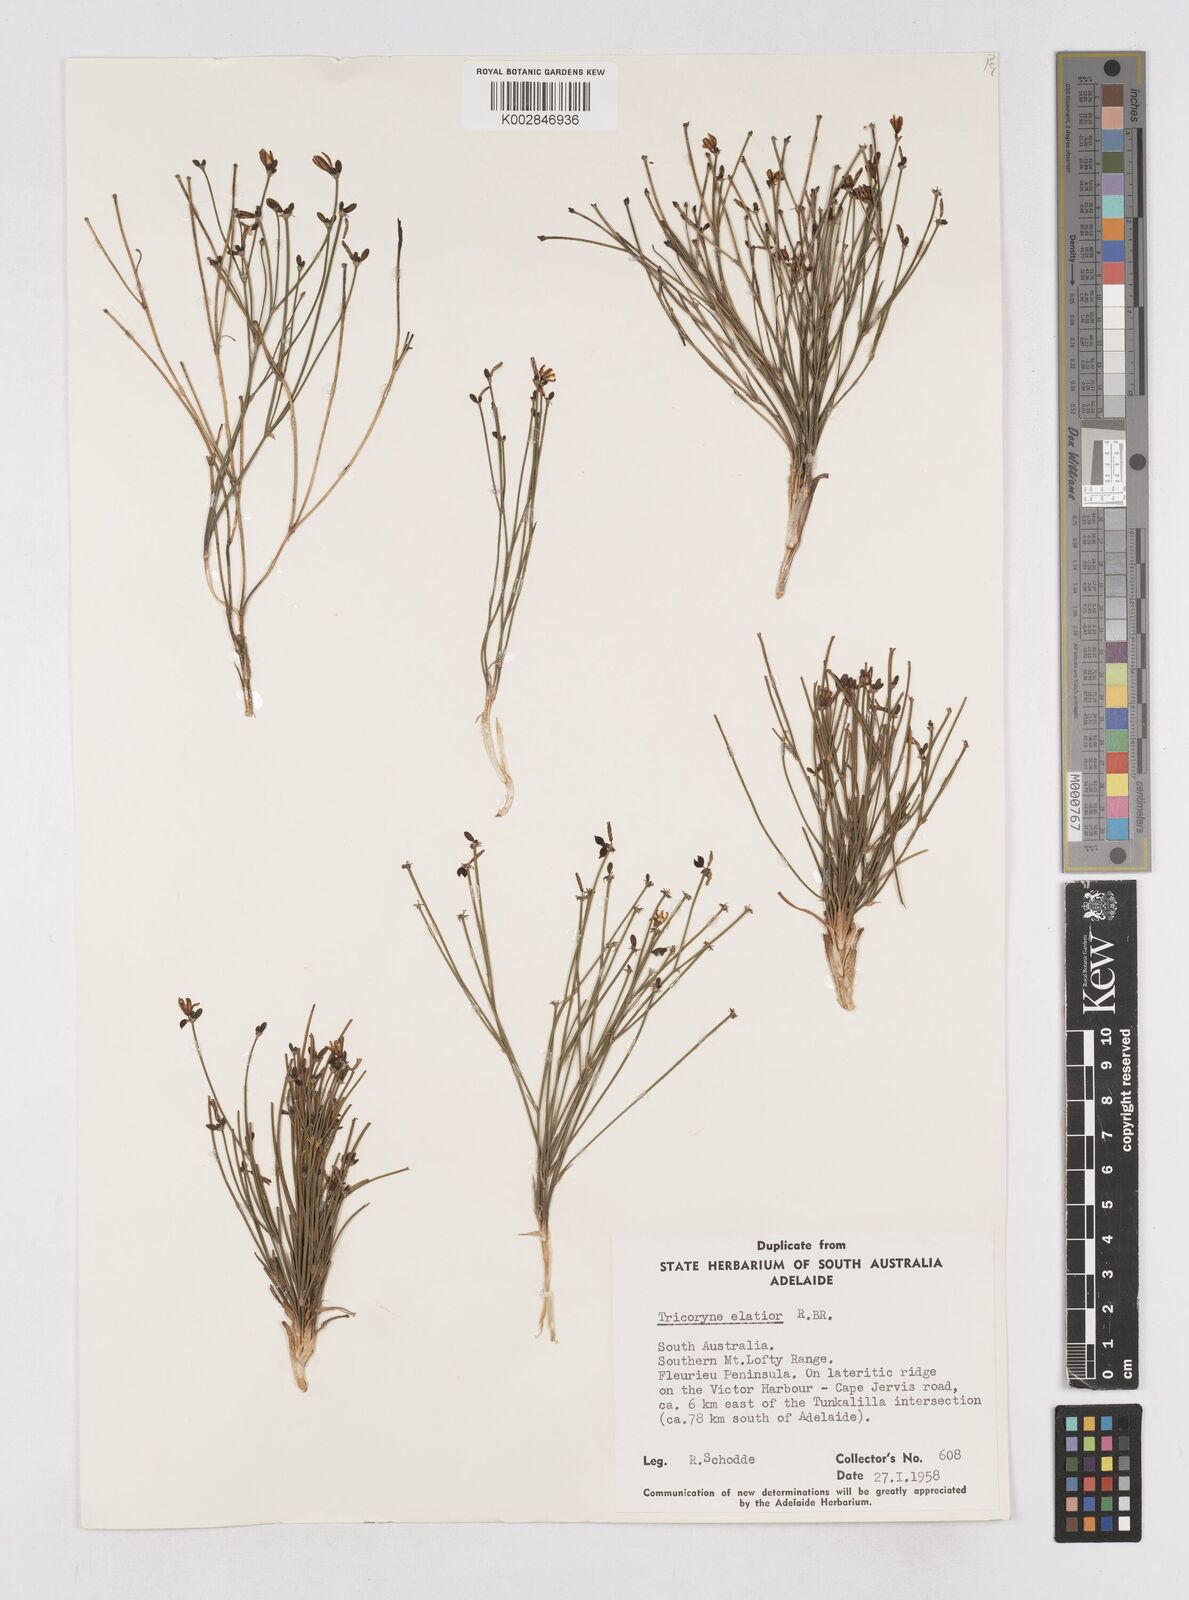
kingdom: Plantae
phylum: Tracheophyta
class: Liliopsida
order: Asparagales
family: Asphodelaceae
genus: Tricoryne
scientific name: Tricoryne elatior
